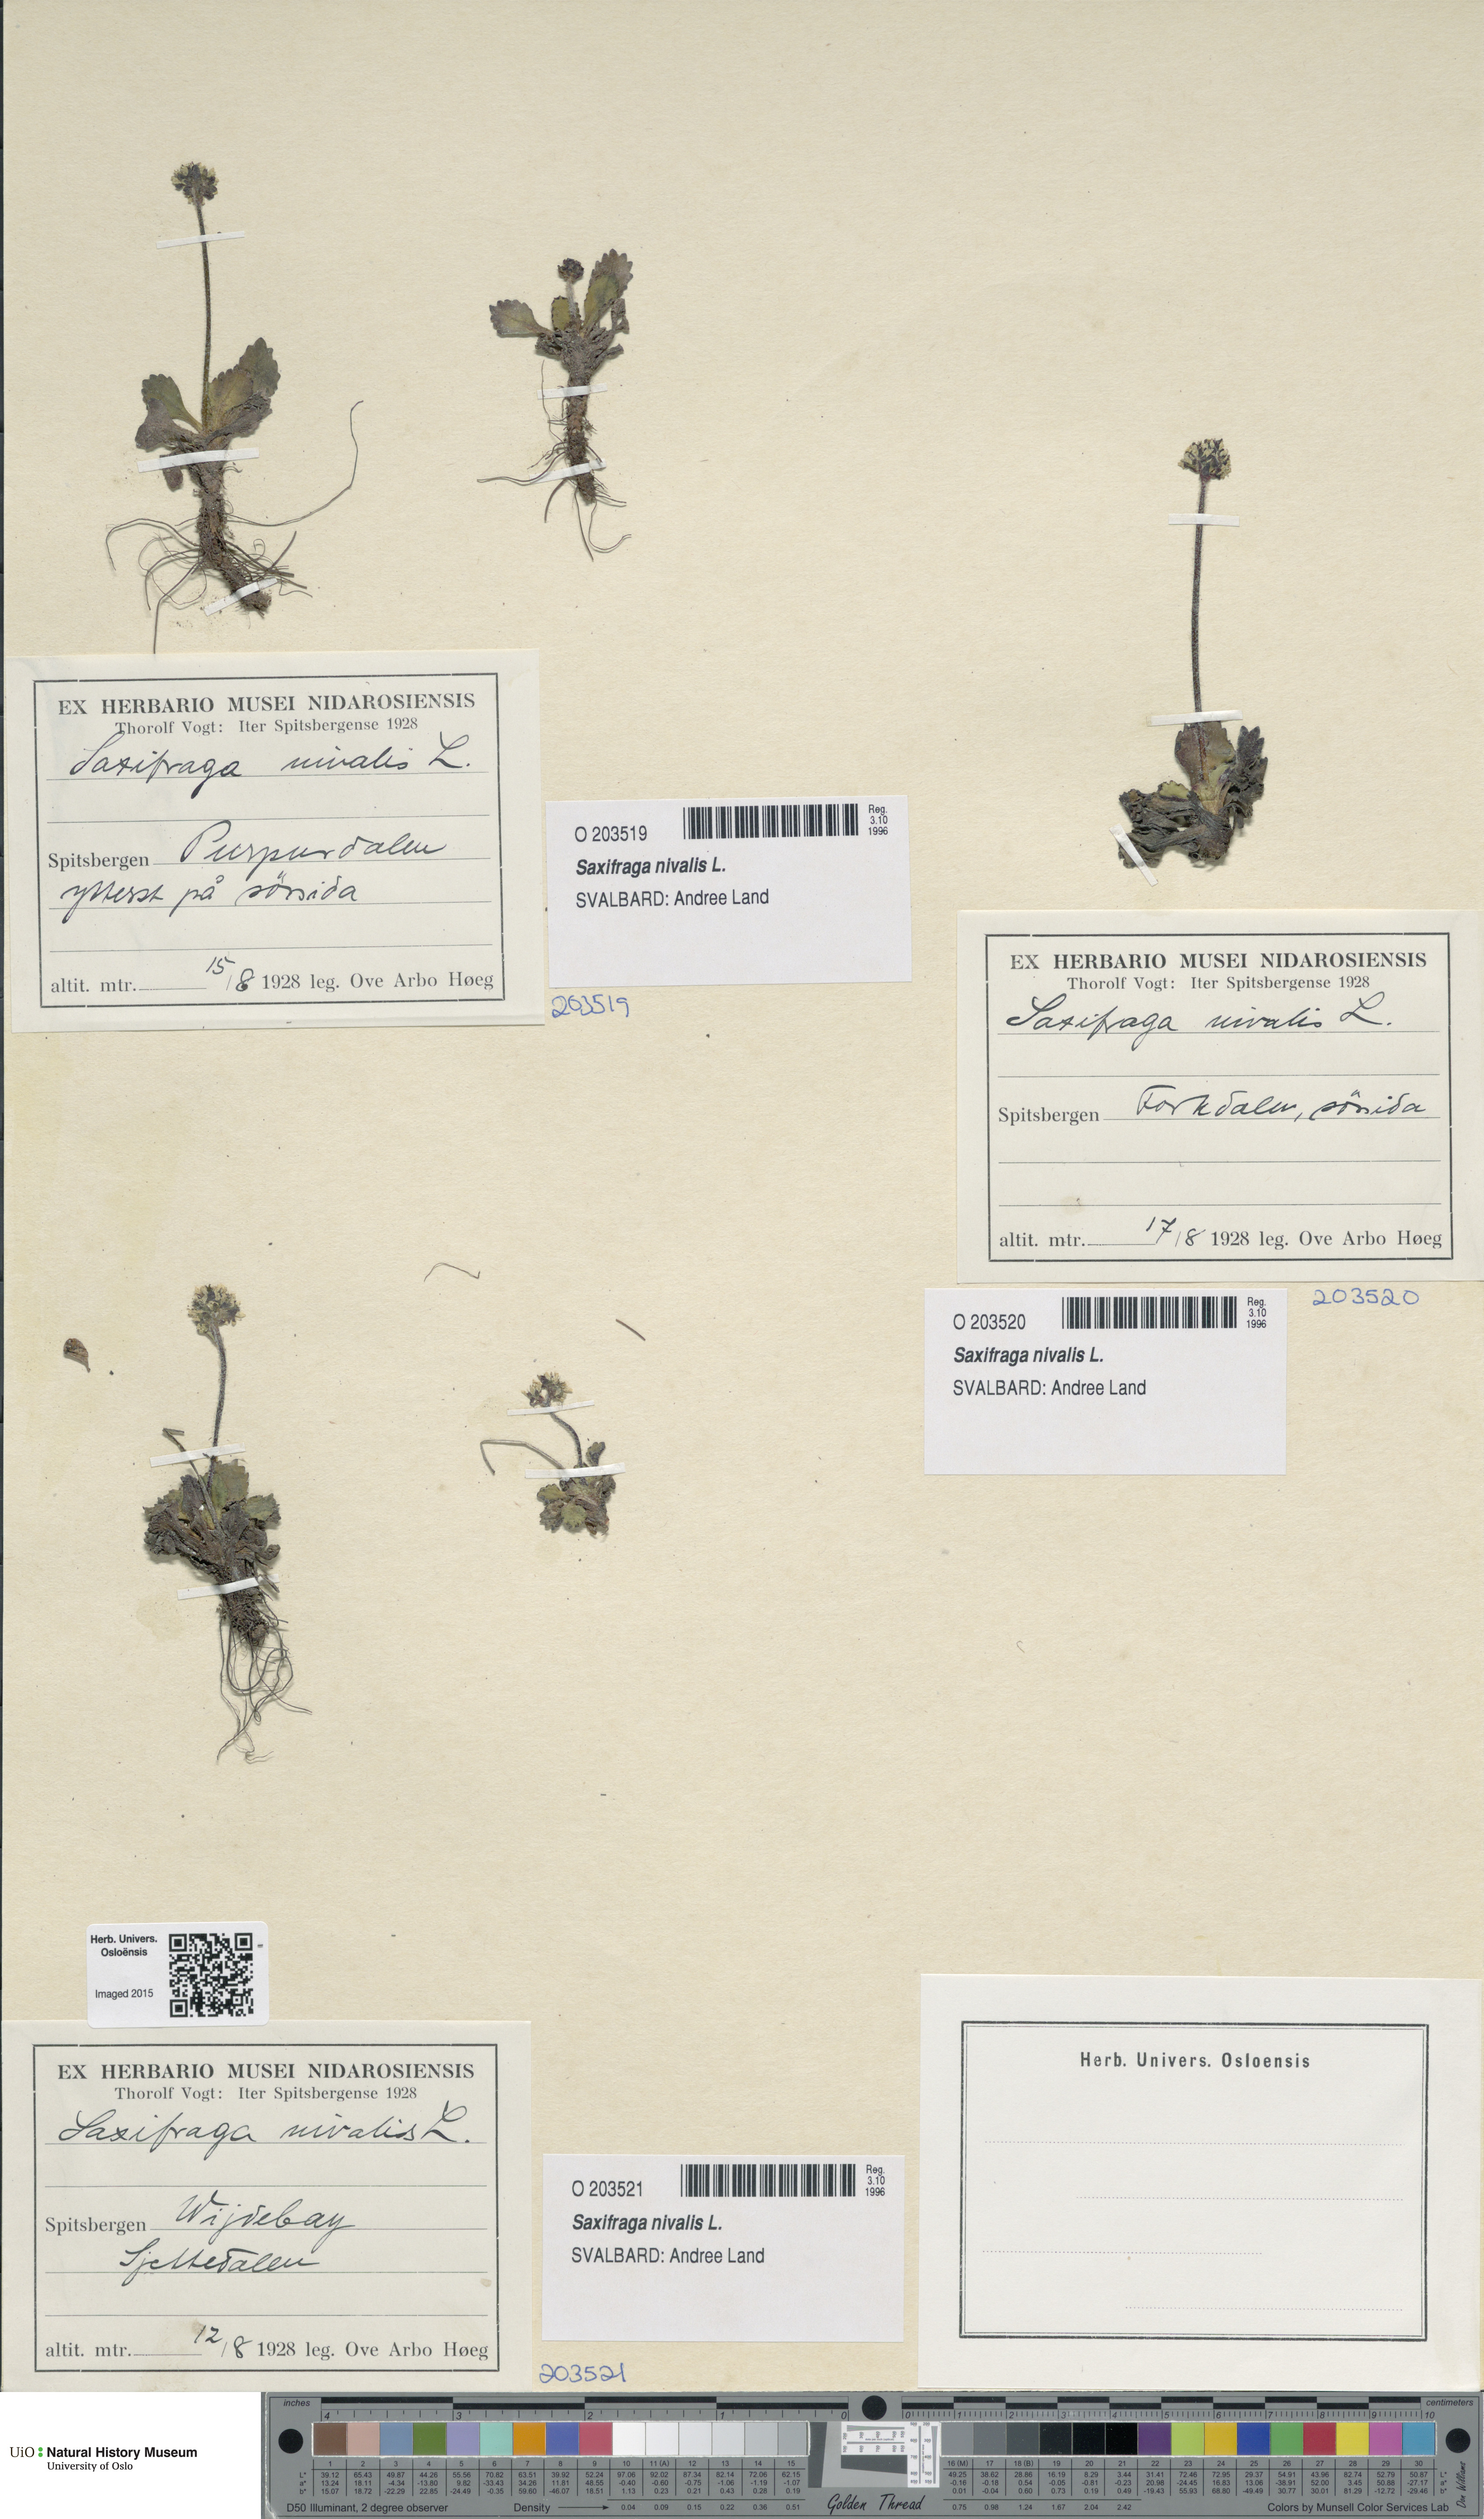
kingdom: Plantae
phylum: Tracheophyta
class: Magnoliopsida
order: Saxifragales
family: Saxifragaceae
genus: Micranthes
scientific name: Micranthes nivalis
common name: Alpine saxifrage
